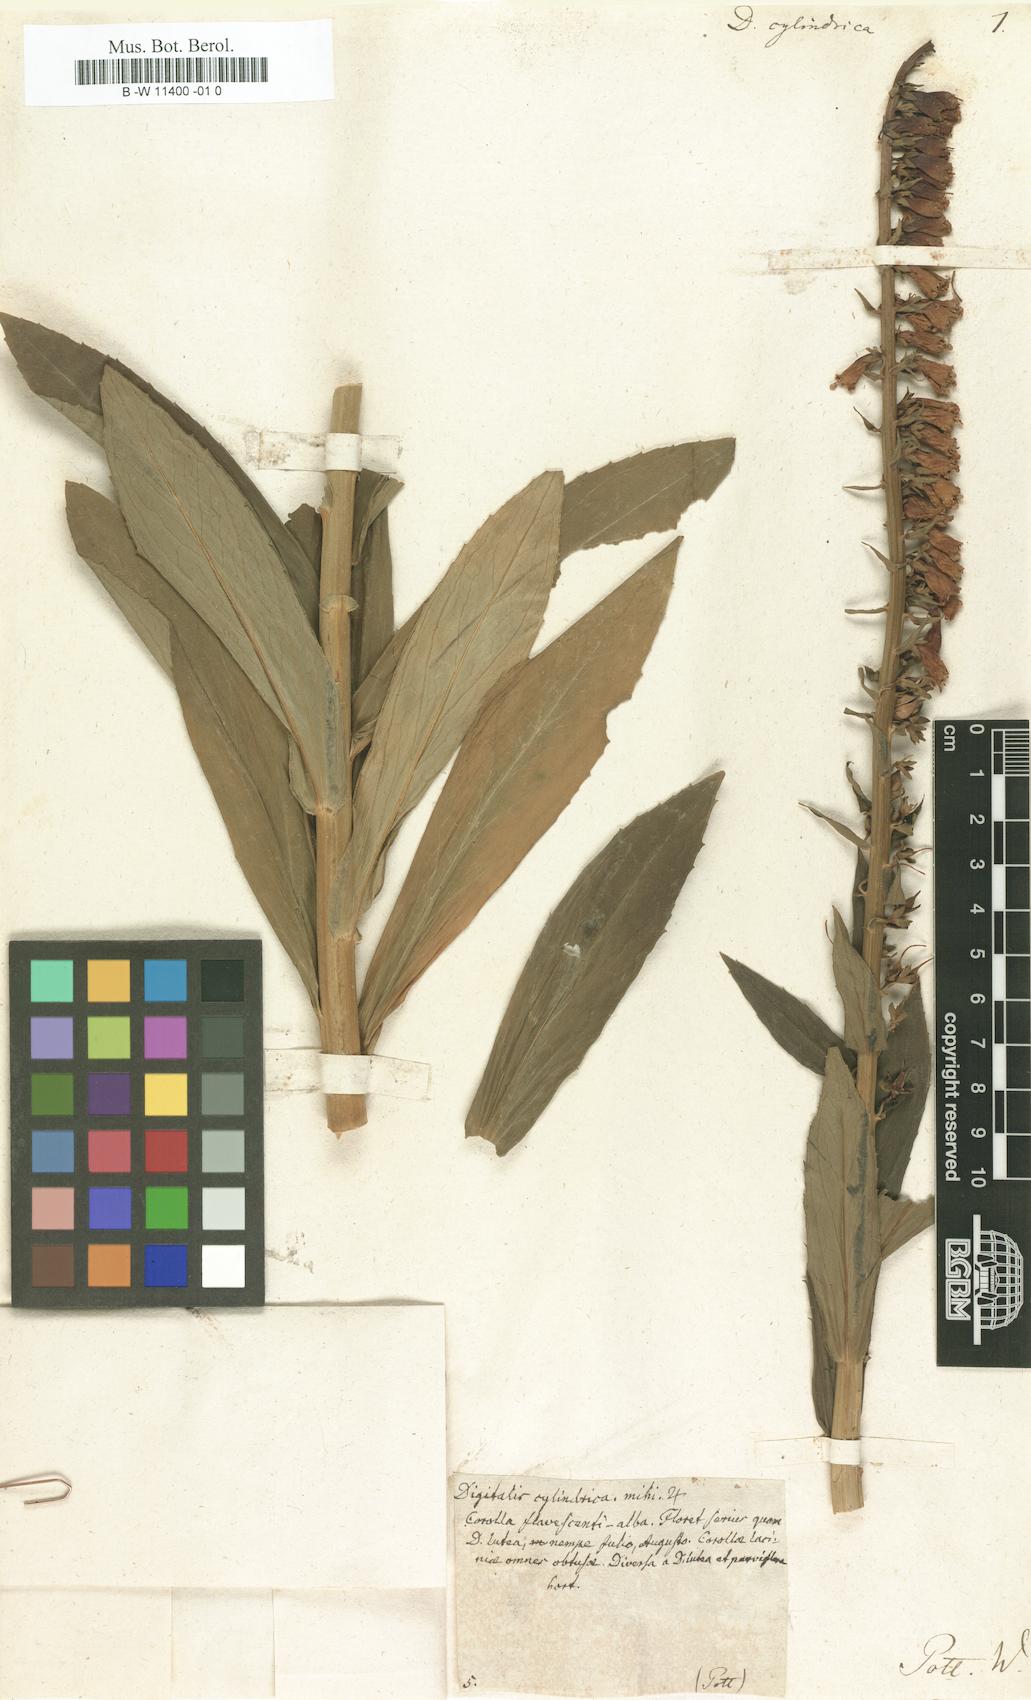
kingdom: Plantae
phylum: Tracheophyta
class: Magnoliopsida
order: Lamiales
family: Plantaginaceae
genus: Digitalis
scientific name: Digitalis
